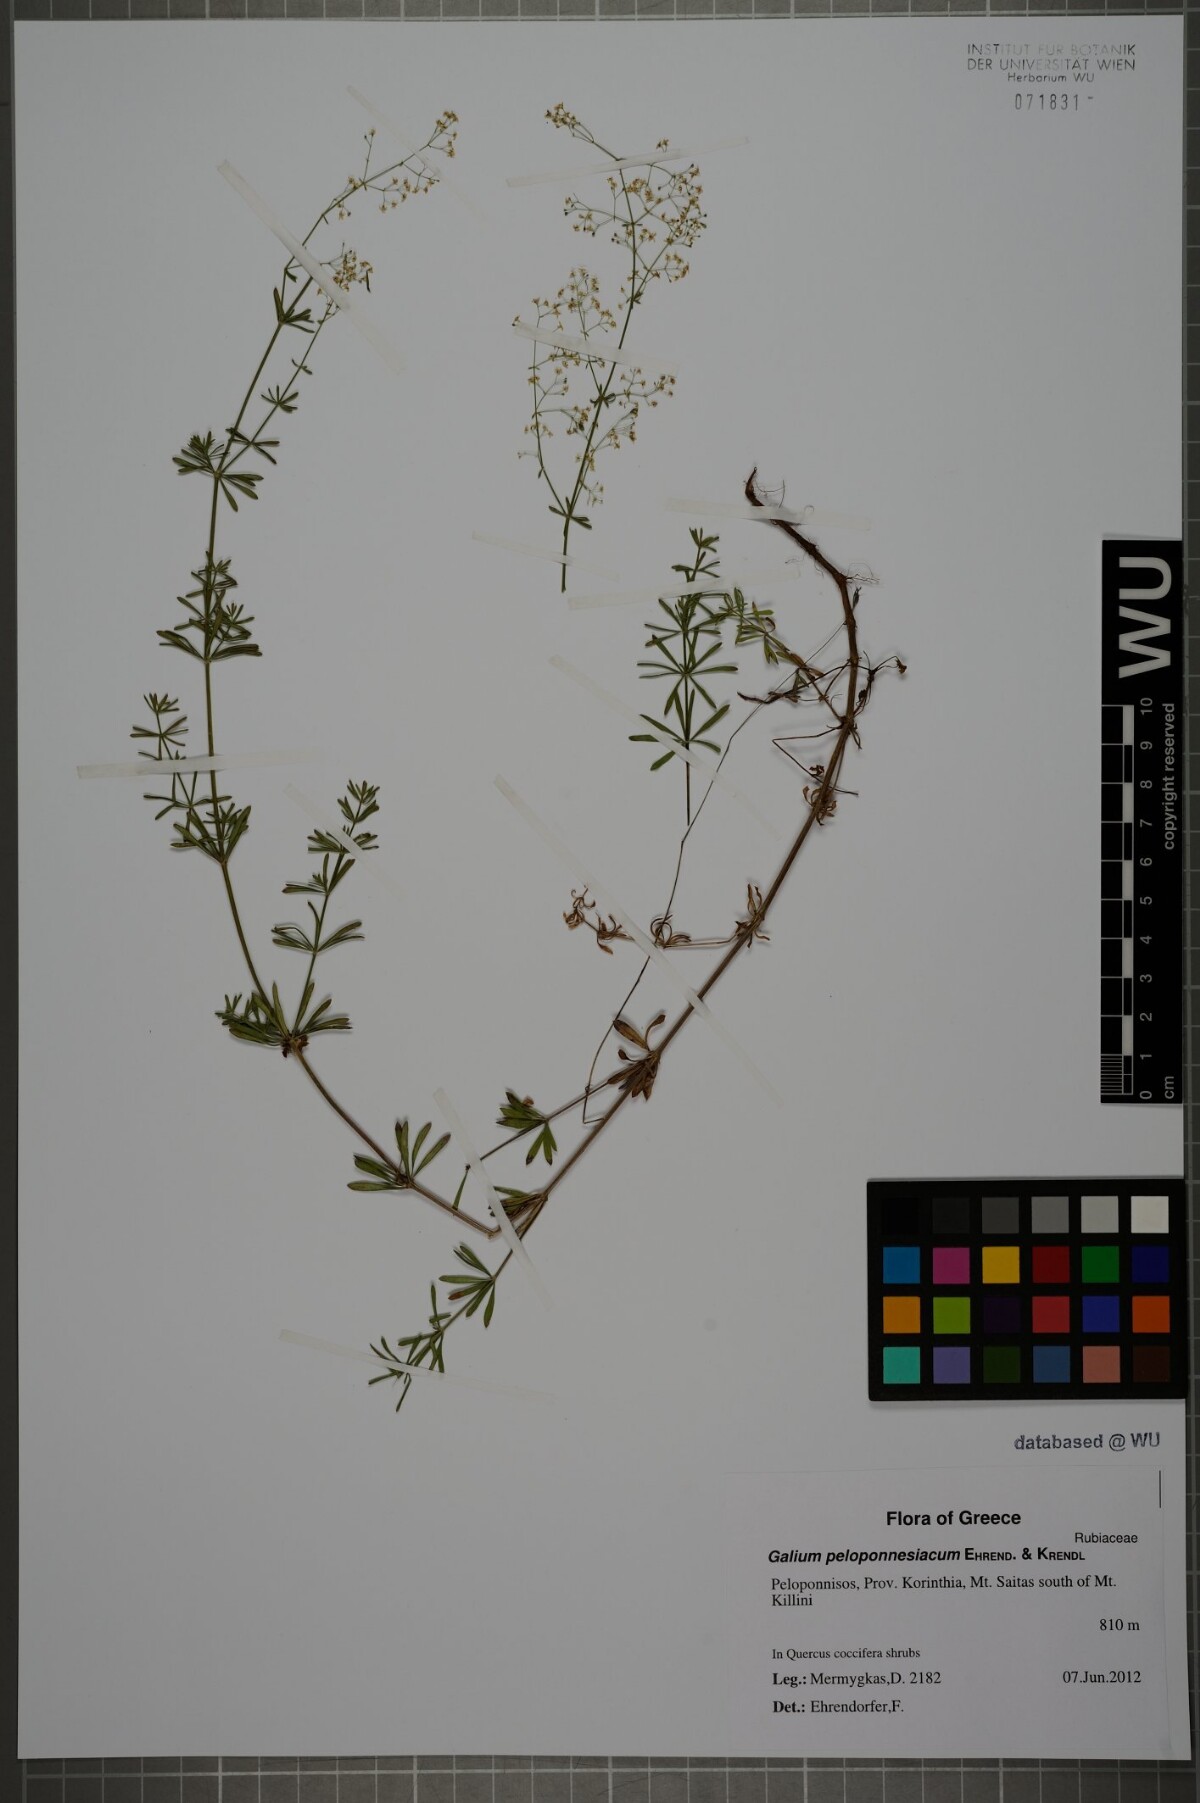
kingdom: Plantae
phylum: Tracheophyta
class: Magnoliopsida
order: Gentianales
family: Rubiaceae
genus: Galium
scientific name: Galium peloponnesiacum
